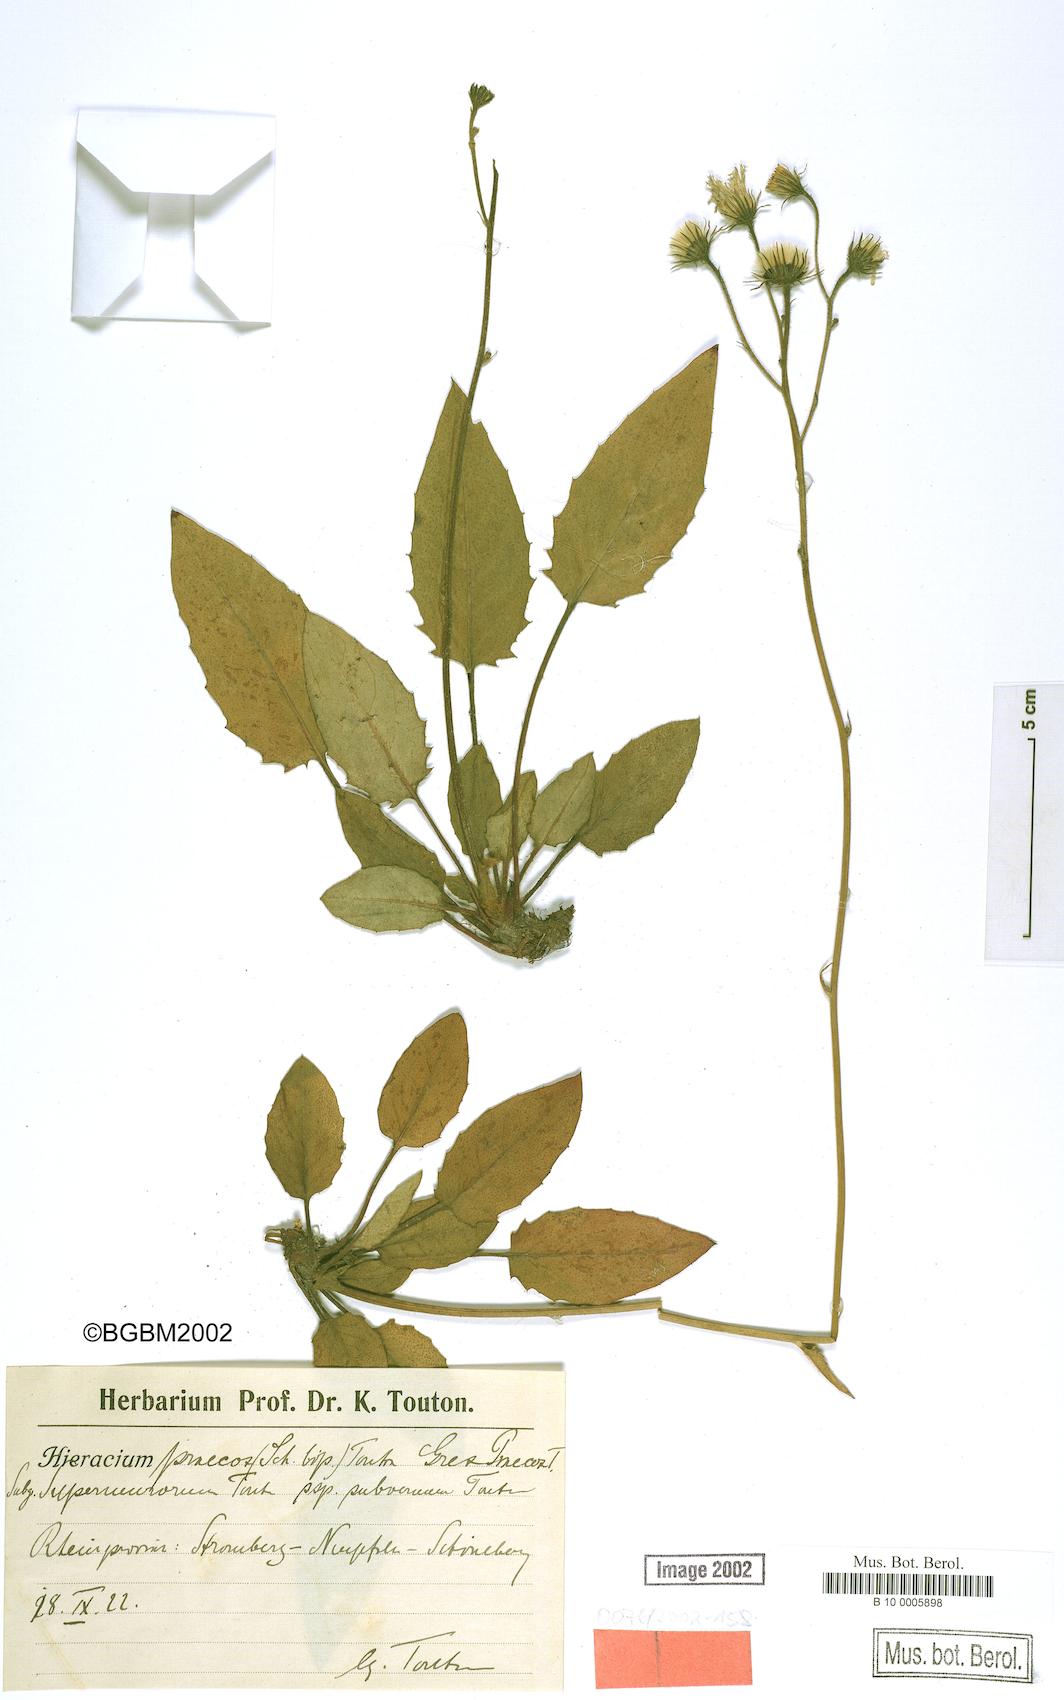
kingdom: Plantae
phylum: Tracheophyta
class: Magnoliopsida
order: Asterales
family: Asteraceae
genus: Hieracium
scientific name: Hieracium brevipes
